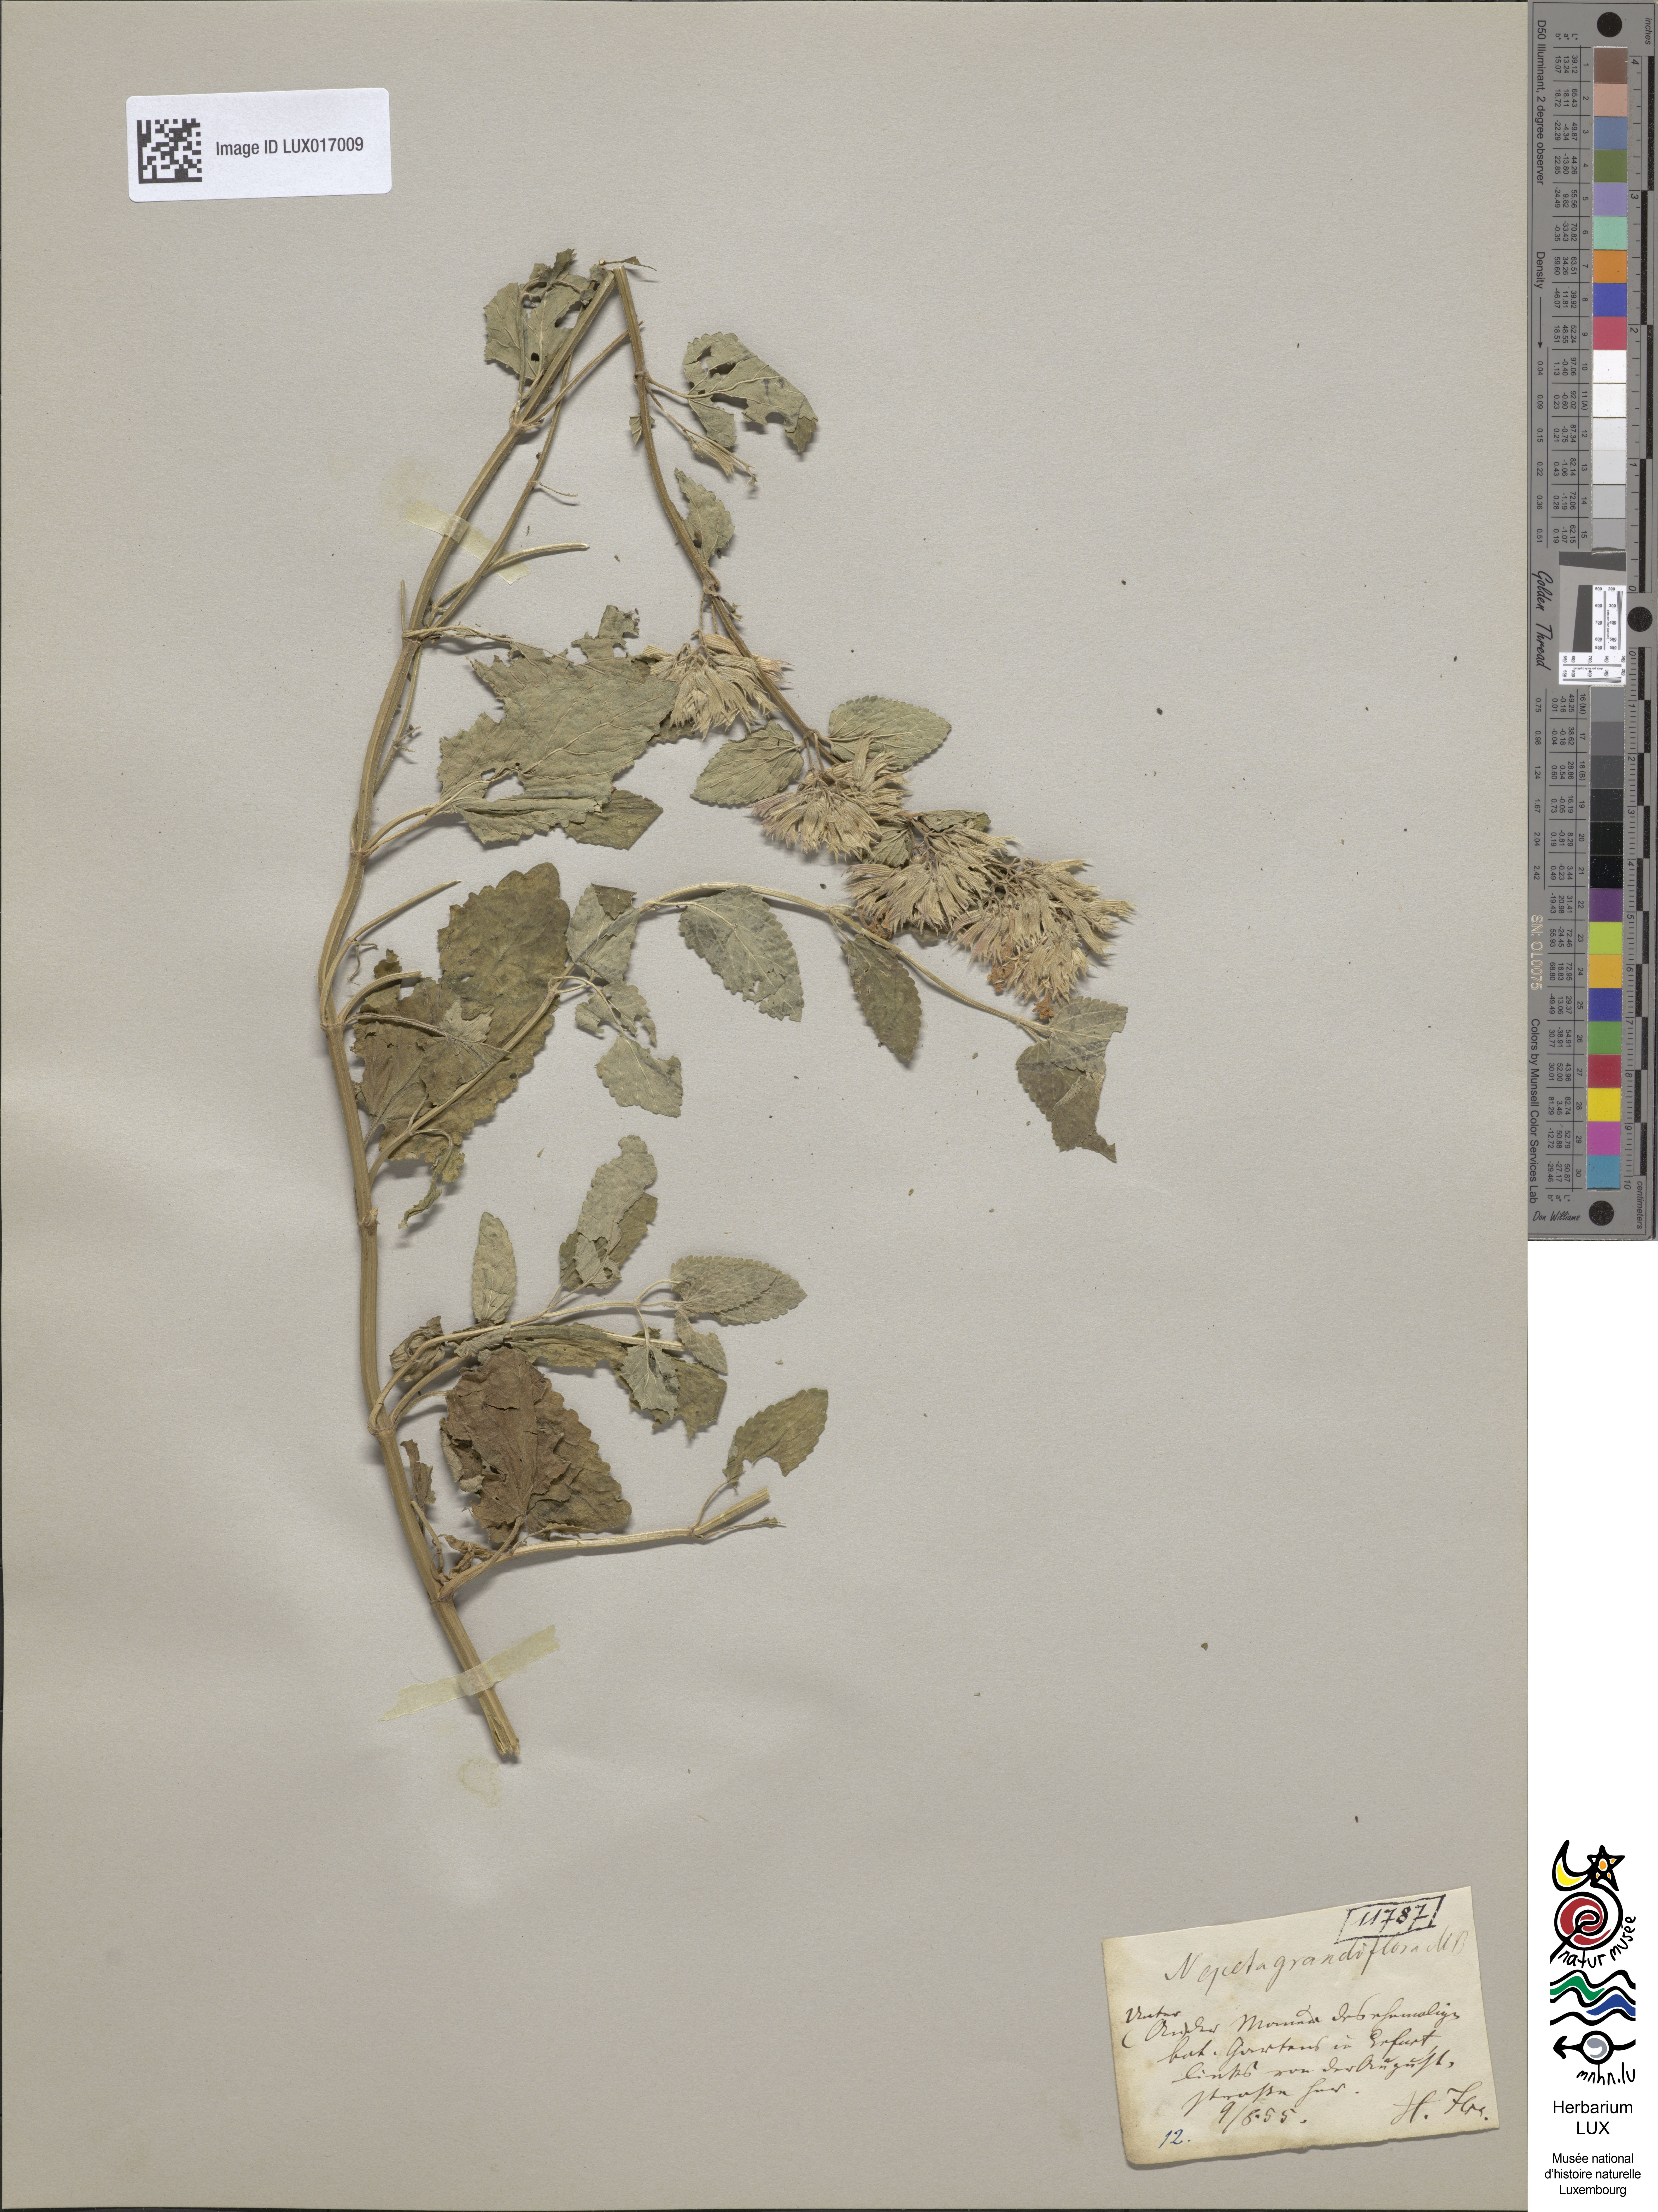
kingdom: Plantae
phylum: Tracheophyta
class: Magnoliopsida
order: Lamiales
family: Lamiaceae
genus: Nepeta
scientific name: Nepeta grandiflora
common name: Caucasus catmint
